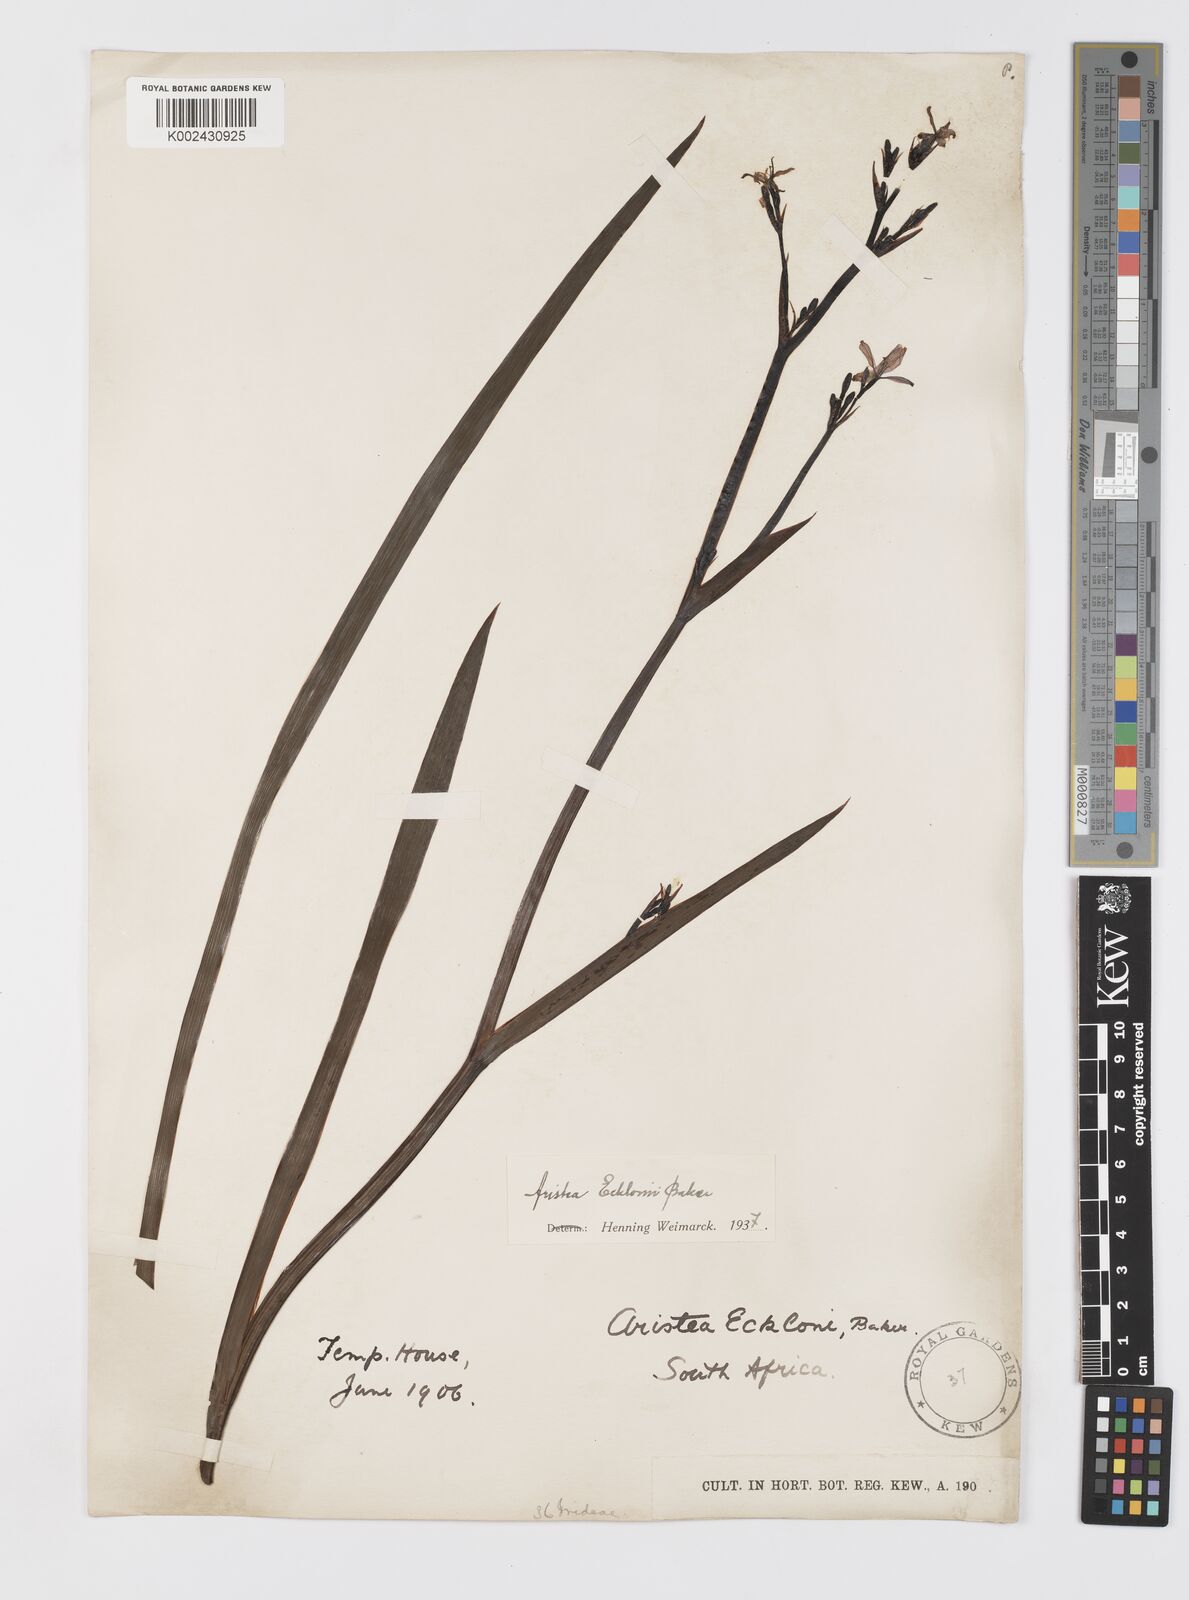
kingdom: Plantae
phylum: Tracheophyta
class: Liliopsida
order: Asparagales
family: Iridaceae
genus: Aristea
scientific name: Aristea ecklonii
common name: Blue corn-lily
